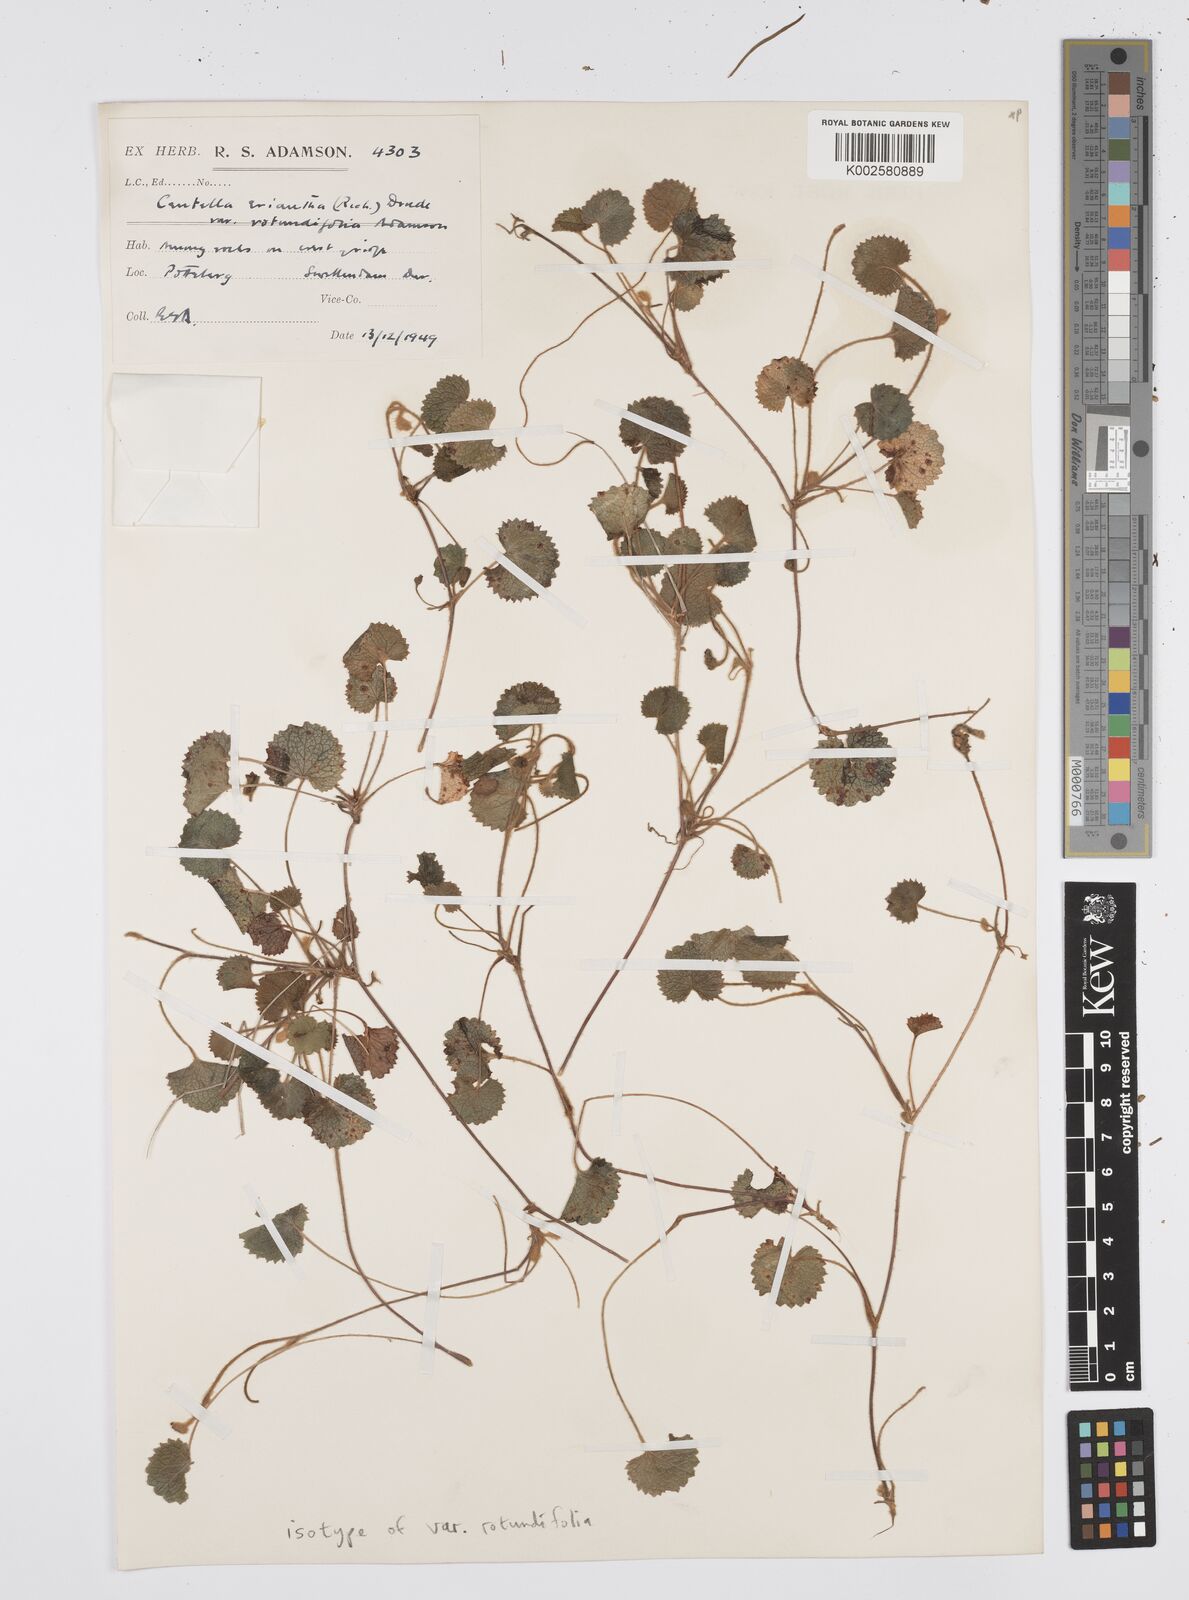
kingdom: Plantae
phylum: Tracheophyta
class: Magnoliopsida
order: Apiales
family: Apiaceae
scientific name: Apiaceae
